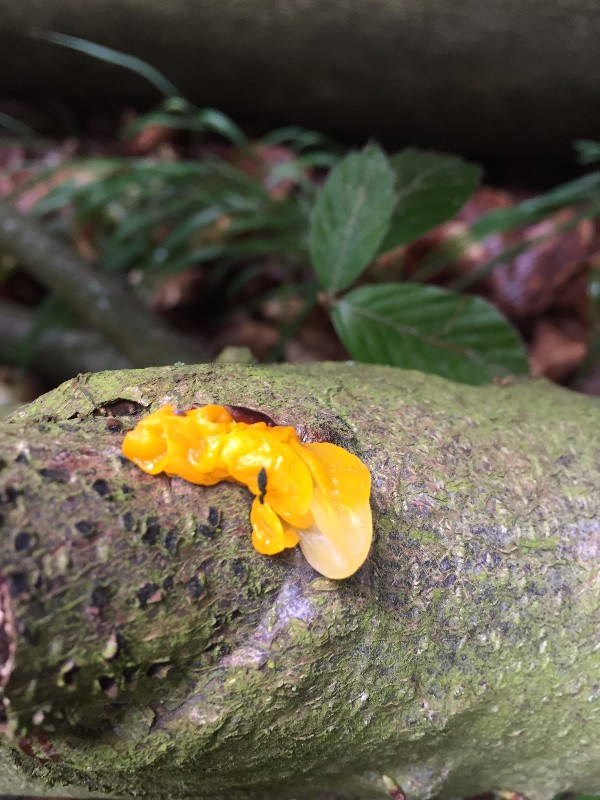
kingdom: Fungi
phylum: Basidiomycota
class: Tremellomycetes
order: Tremellales
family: Tremellaceae
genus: Tremella
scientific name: Tremella mesenterica
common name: gul bævresvamp
